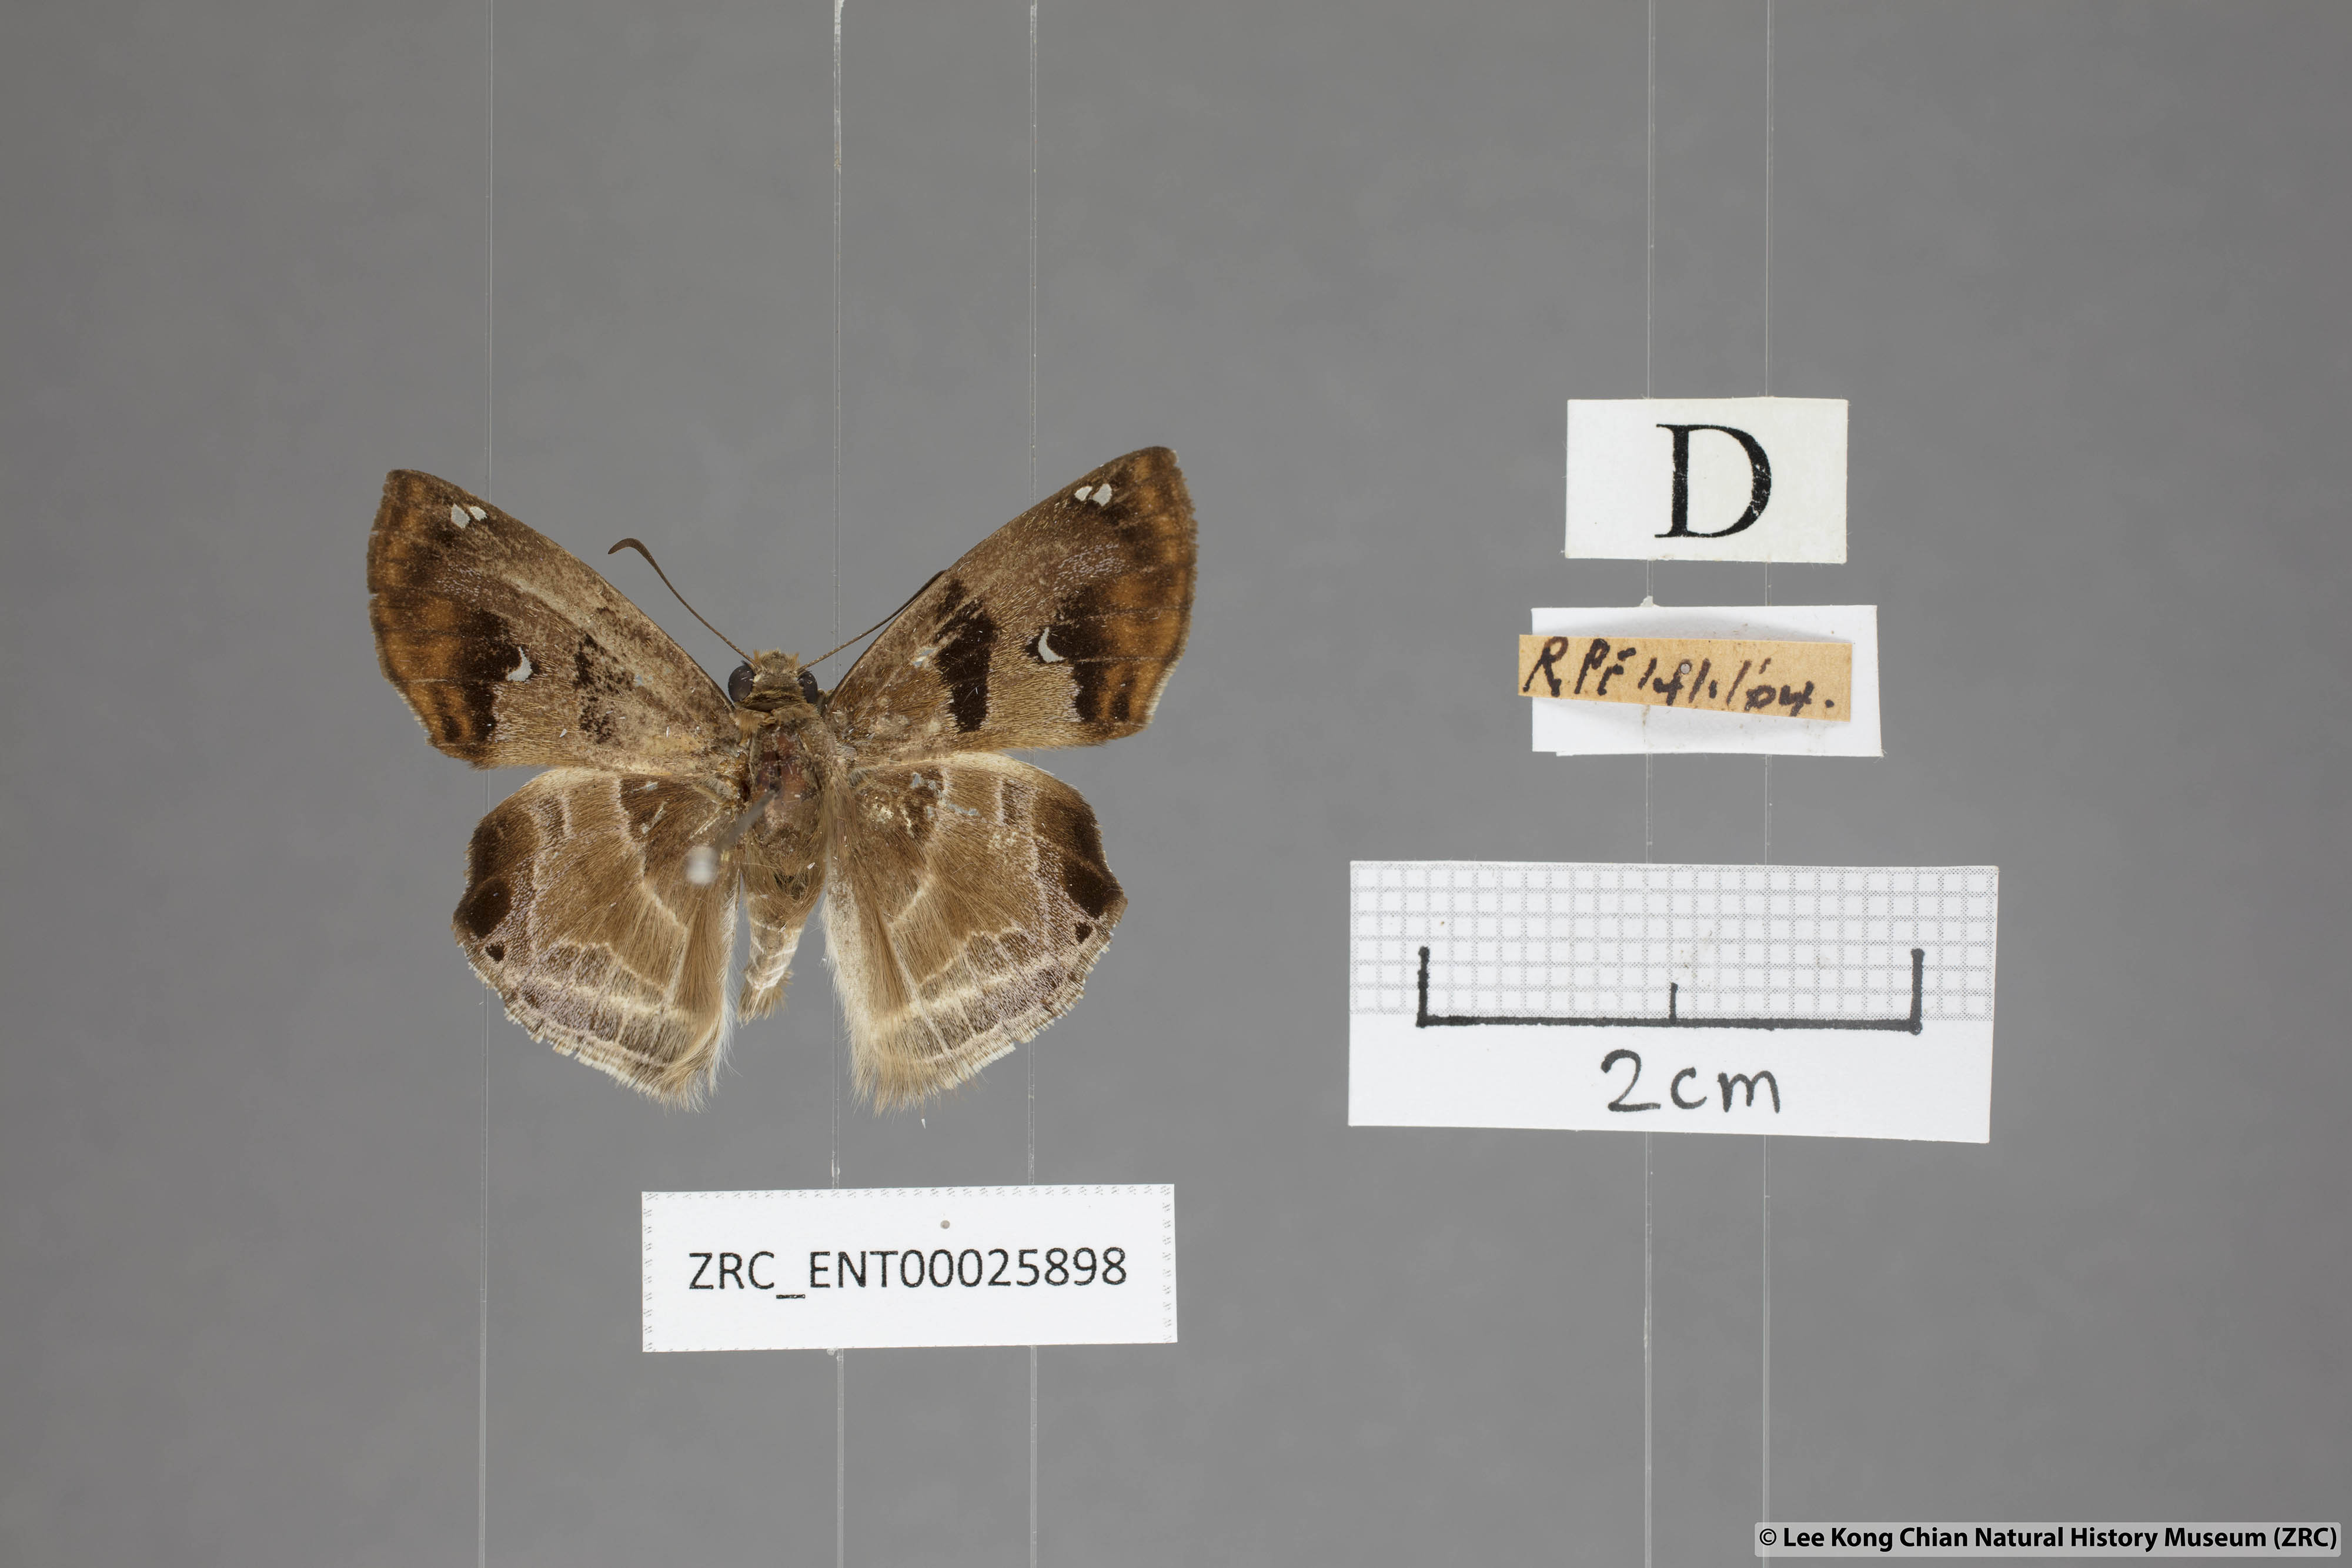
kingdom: Animalia
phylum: Arthropoda
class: Insecta
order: Lepidoptera
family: Hesperiidae
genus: Odontoptilum
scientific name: Odontoptilum angulata
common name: Chestnut banded angle
